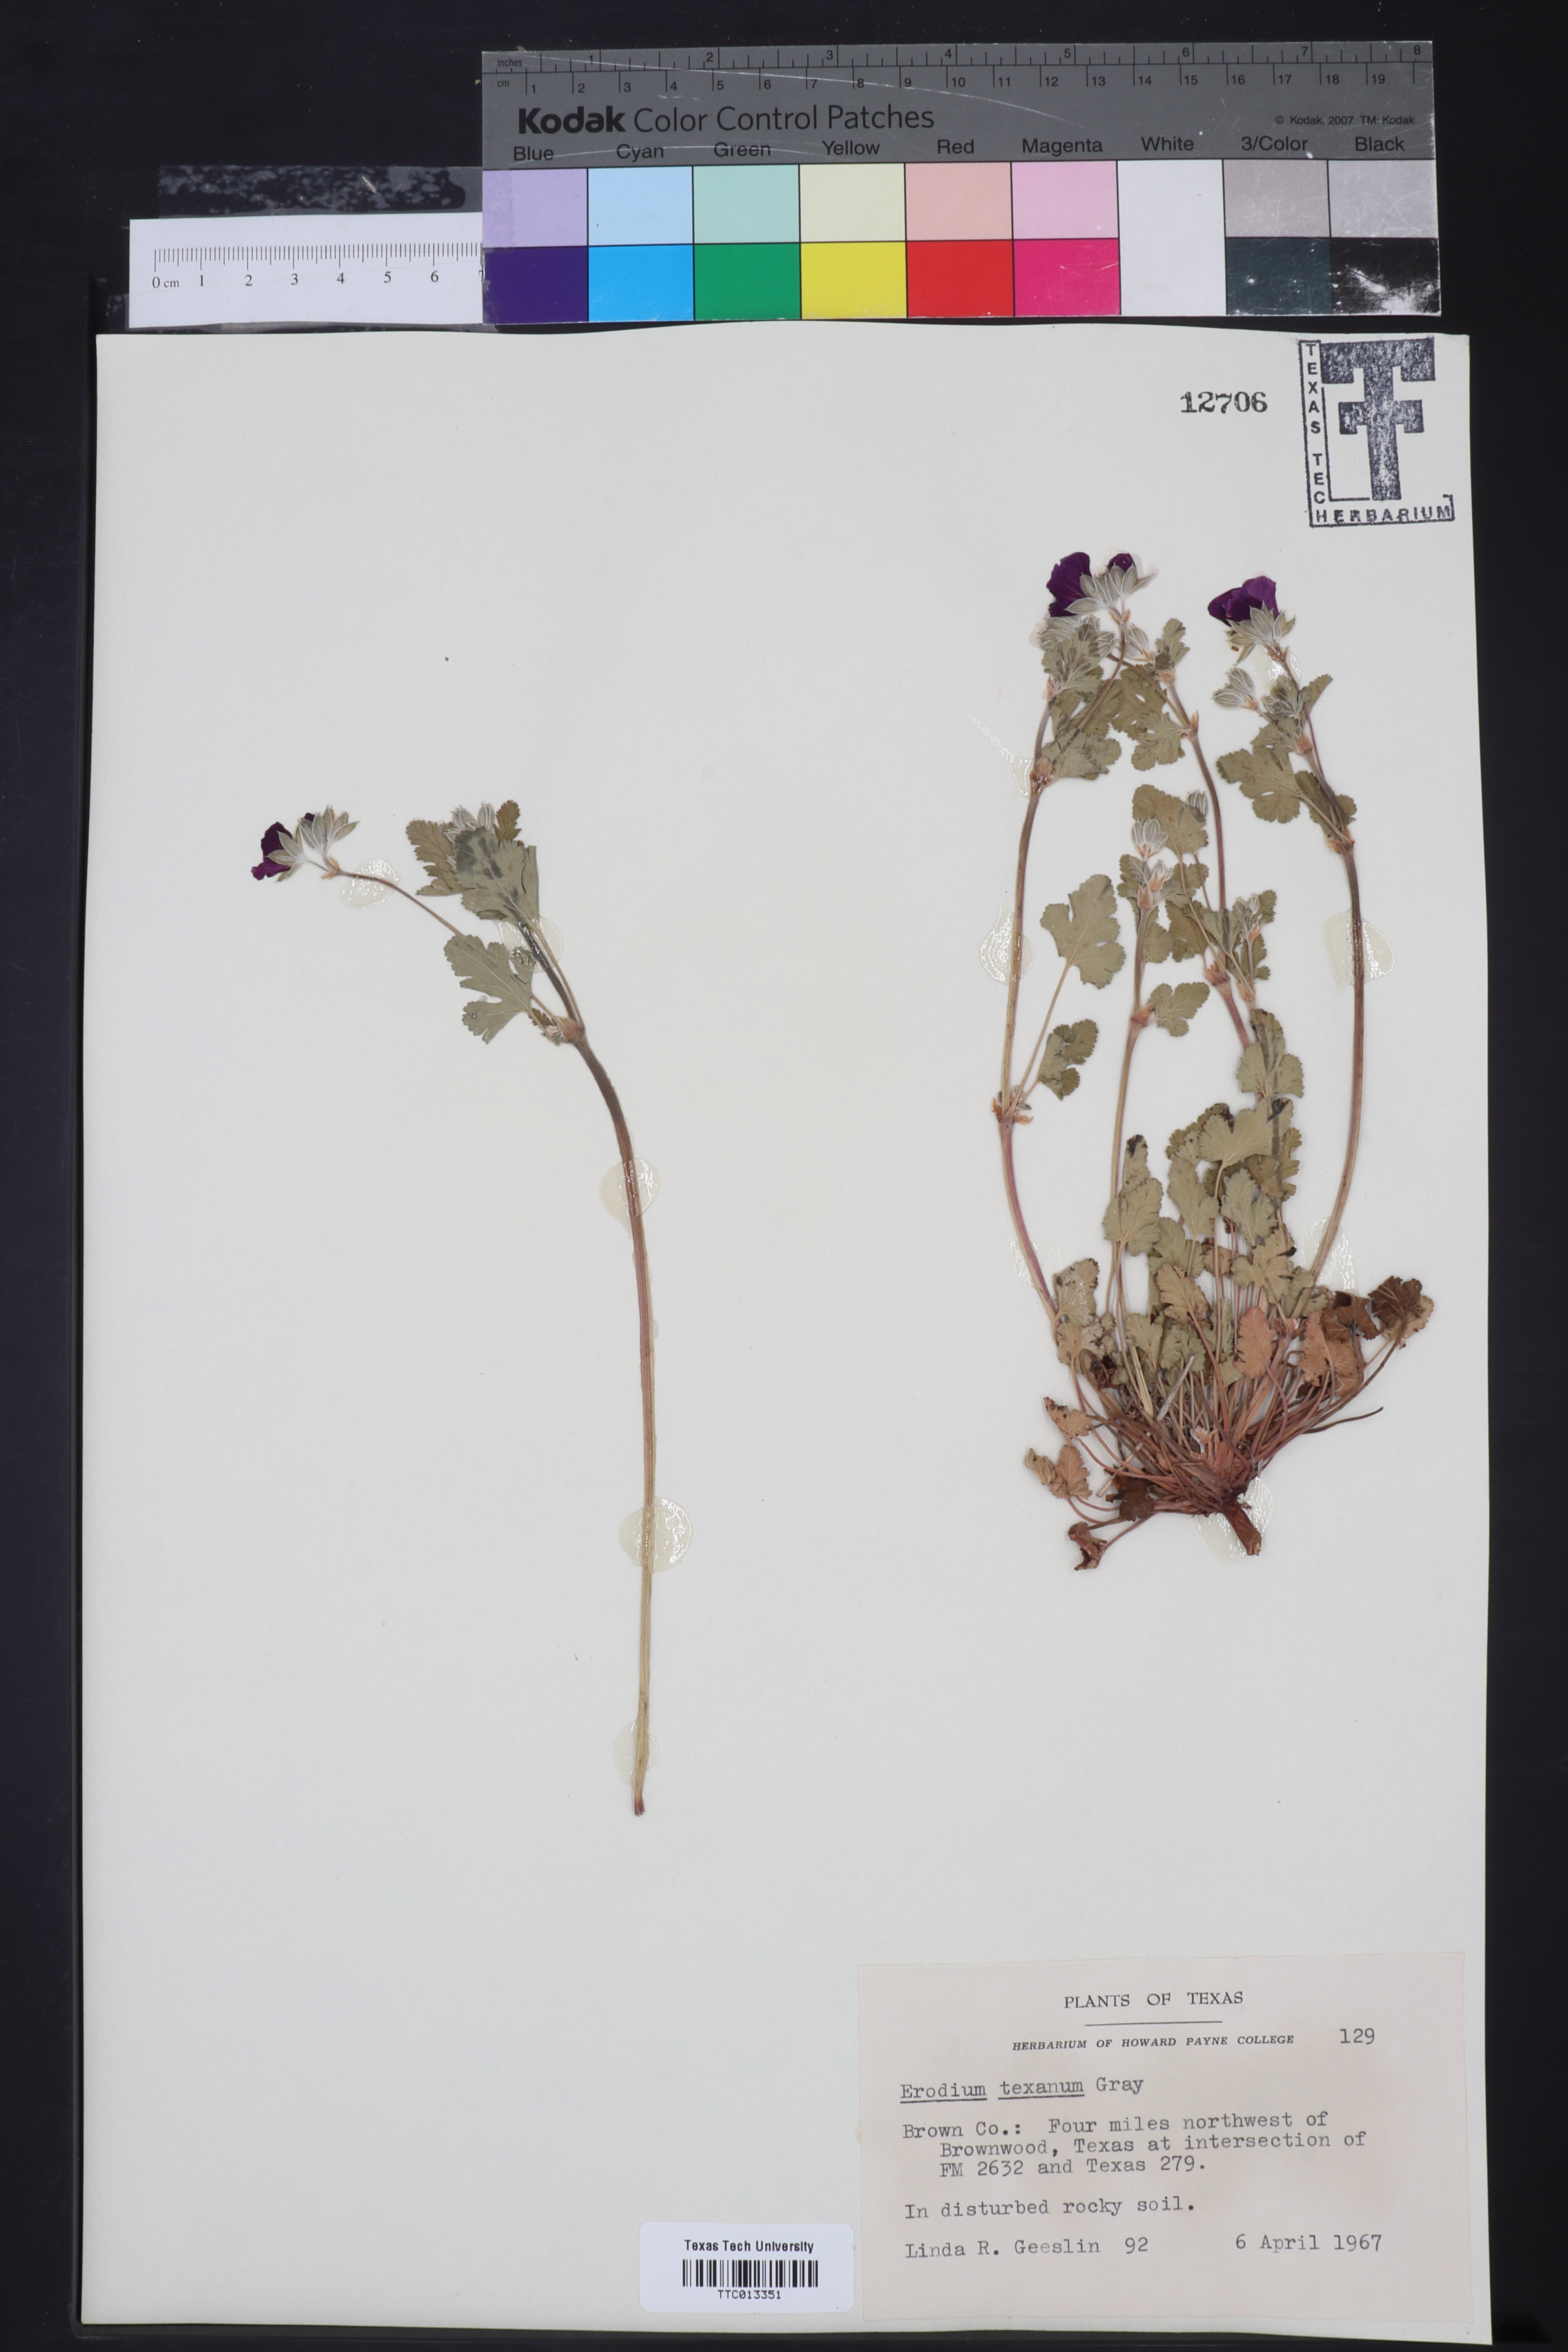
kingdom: Plantae
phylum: Tracheophyta
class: Magnoliopsida
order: Geraniales
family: Geraniaceae
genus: Erodium
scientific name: Erodium texanum
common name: Texas stork's-bill
